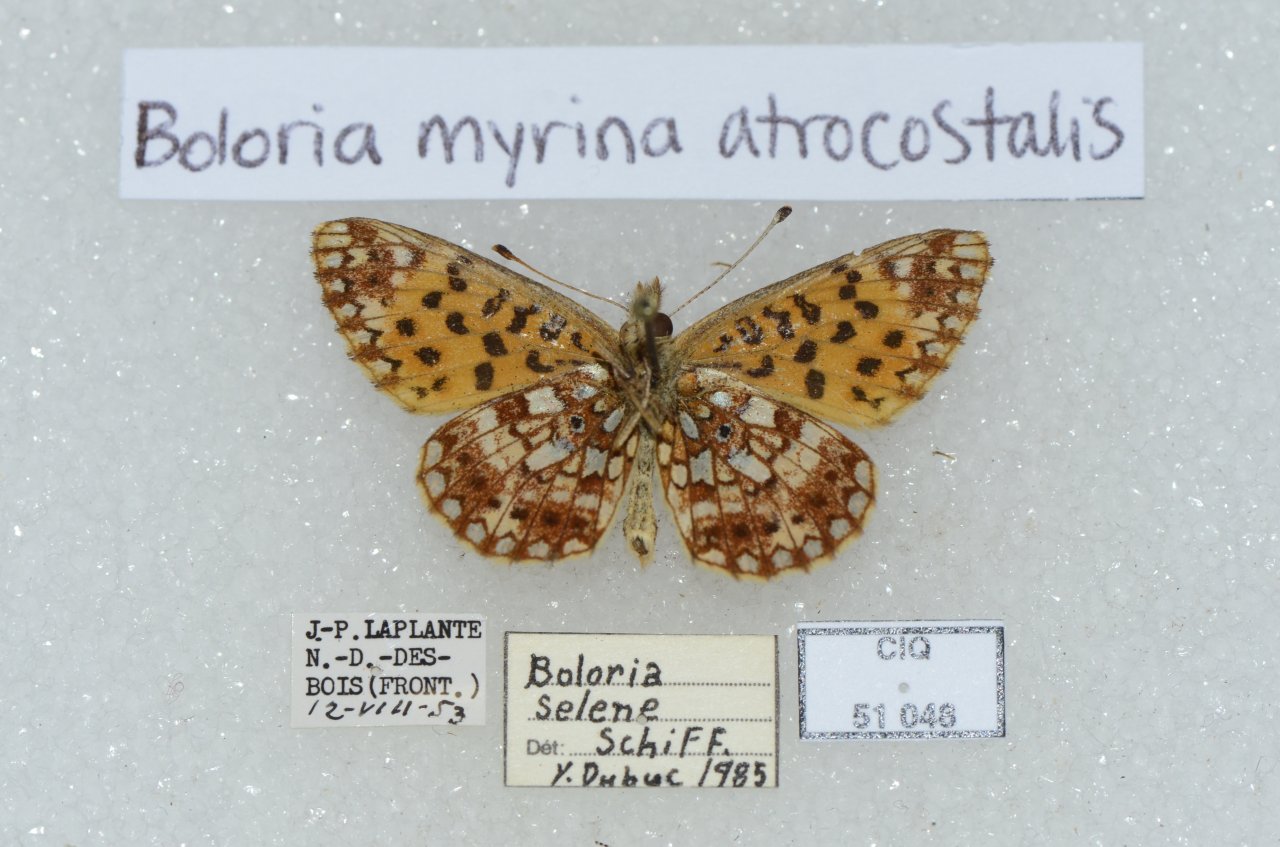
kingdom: Animalia
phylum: Arthropoda
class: Insecta
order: Lepidoptera
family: Nymphalidae
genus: Boloria
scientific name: Boloria selene
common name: Silver-bordered Fritillary
